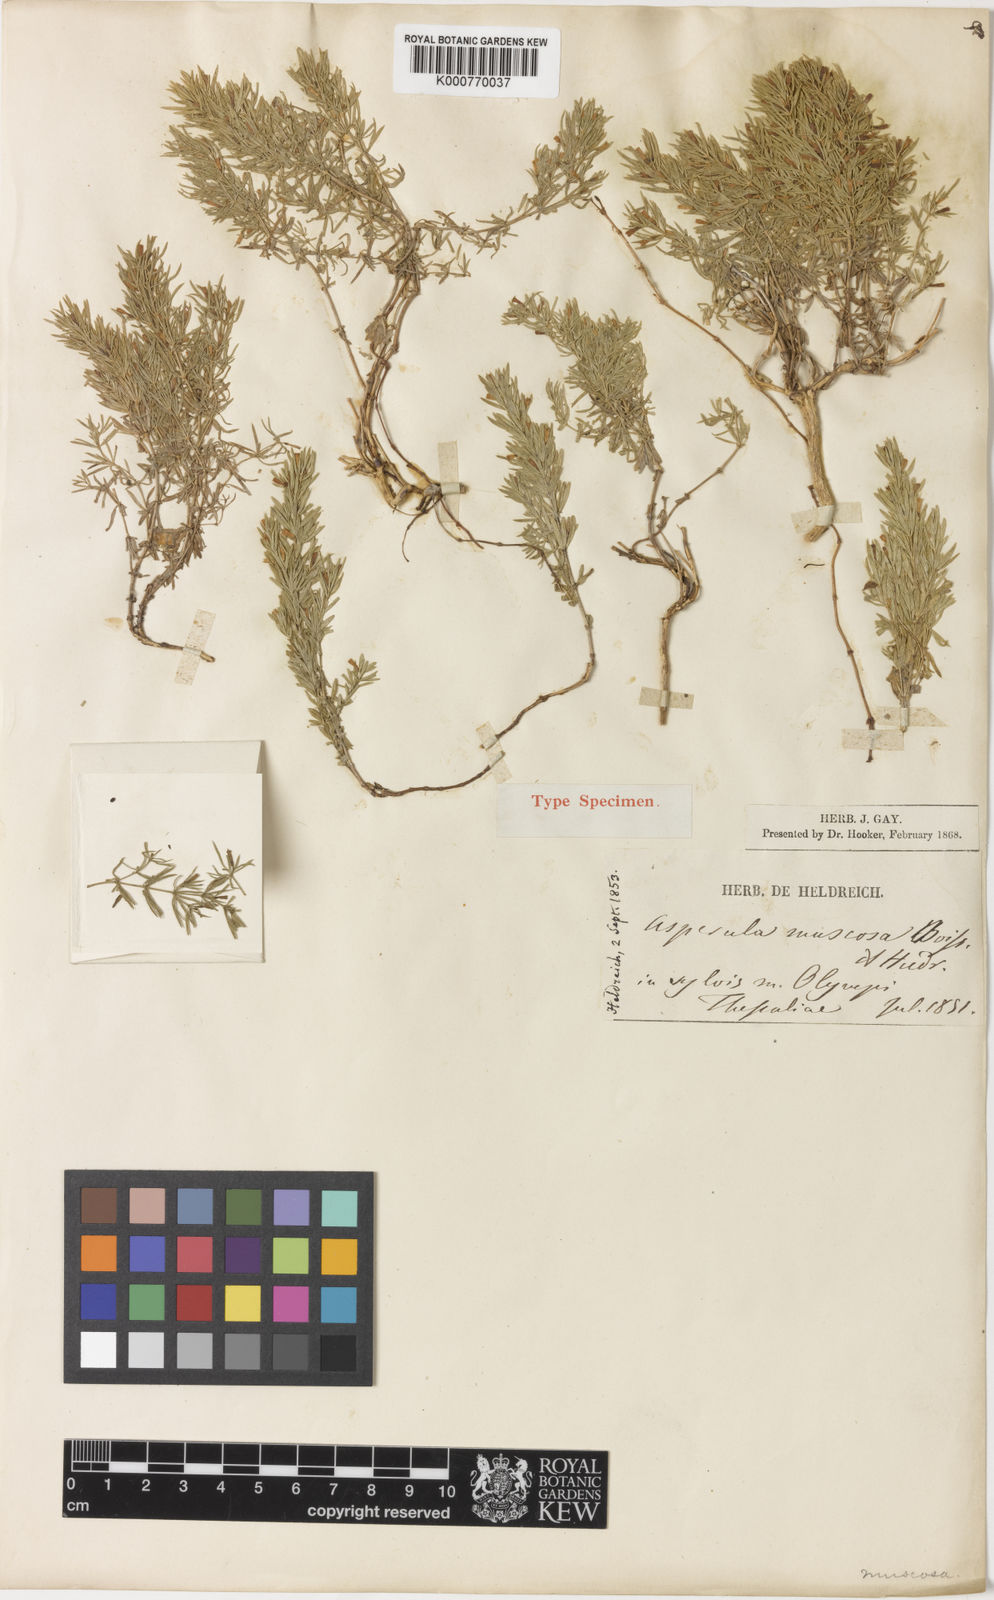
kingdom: Plantae
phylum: Tracheophyta
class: Magnoliopsida
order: Gentianales
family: Rubiaceae
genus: Thliphthisa
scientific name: Thliphthisa muscosa
